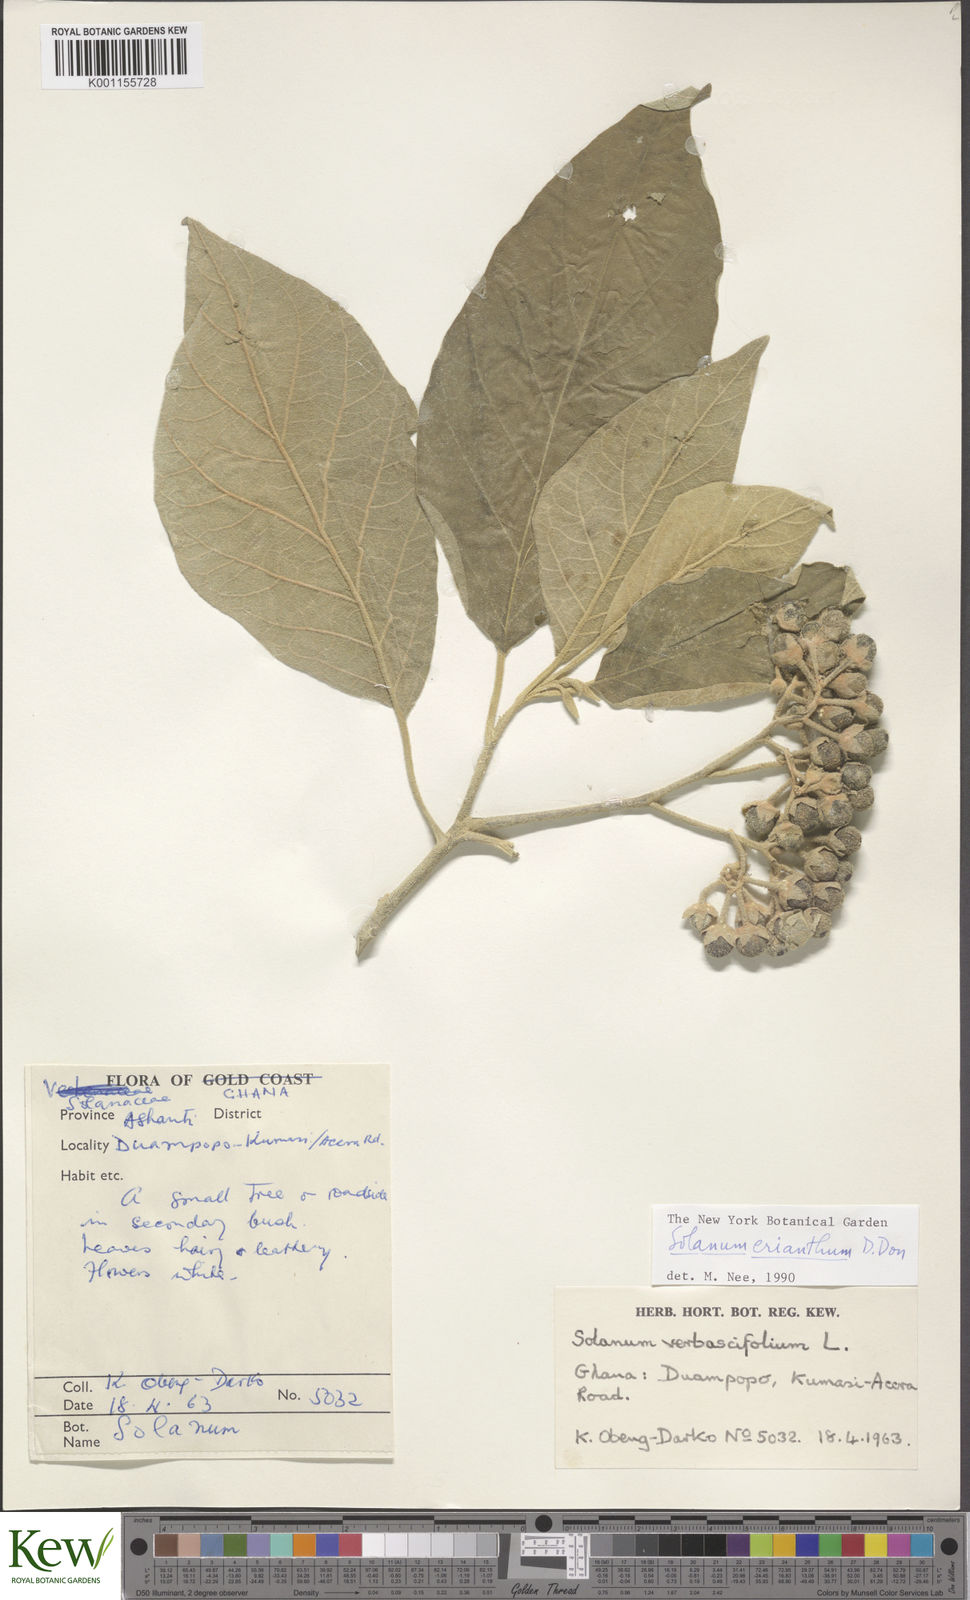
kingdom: Plantae
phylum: Tracheophyta
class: Magnoliopsida
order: Solanales
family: Solanaceae
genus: Solanum
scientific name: Solanum erianthum
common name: Tobacco-tree
